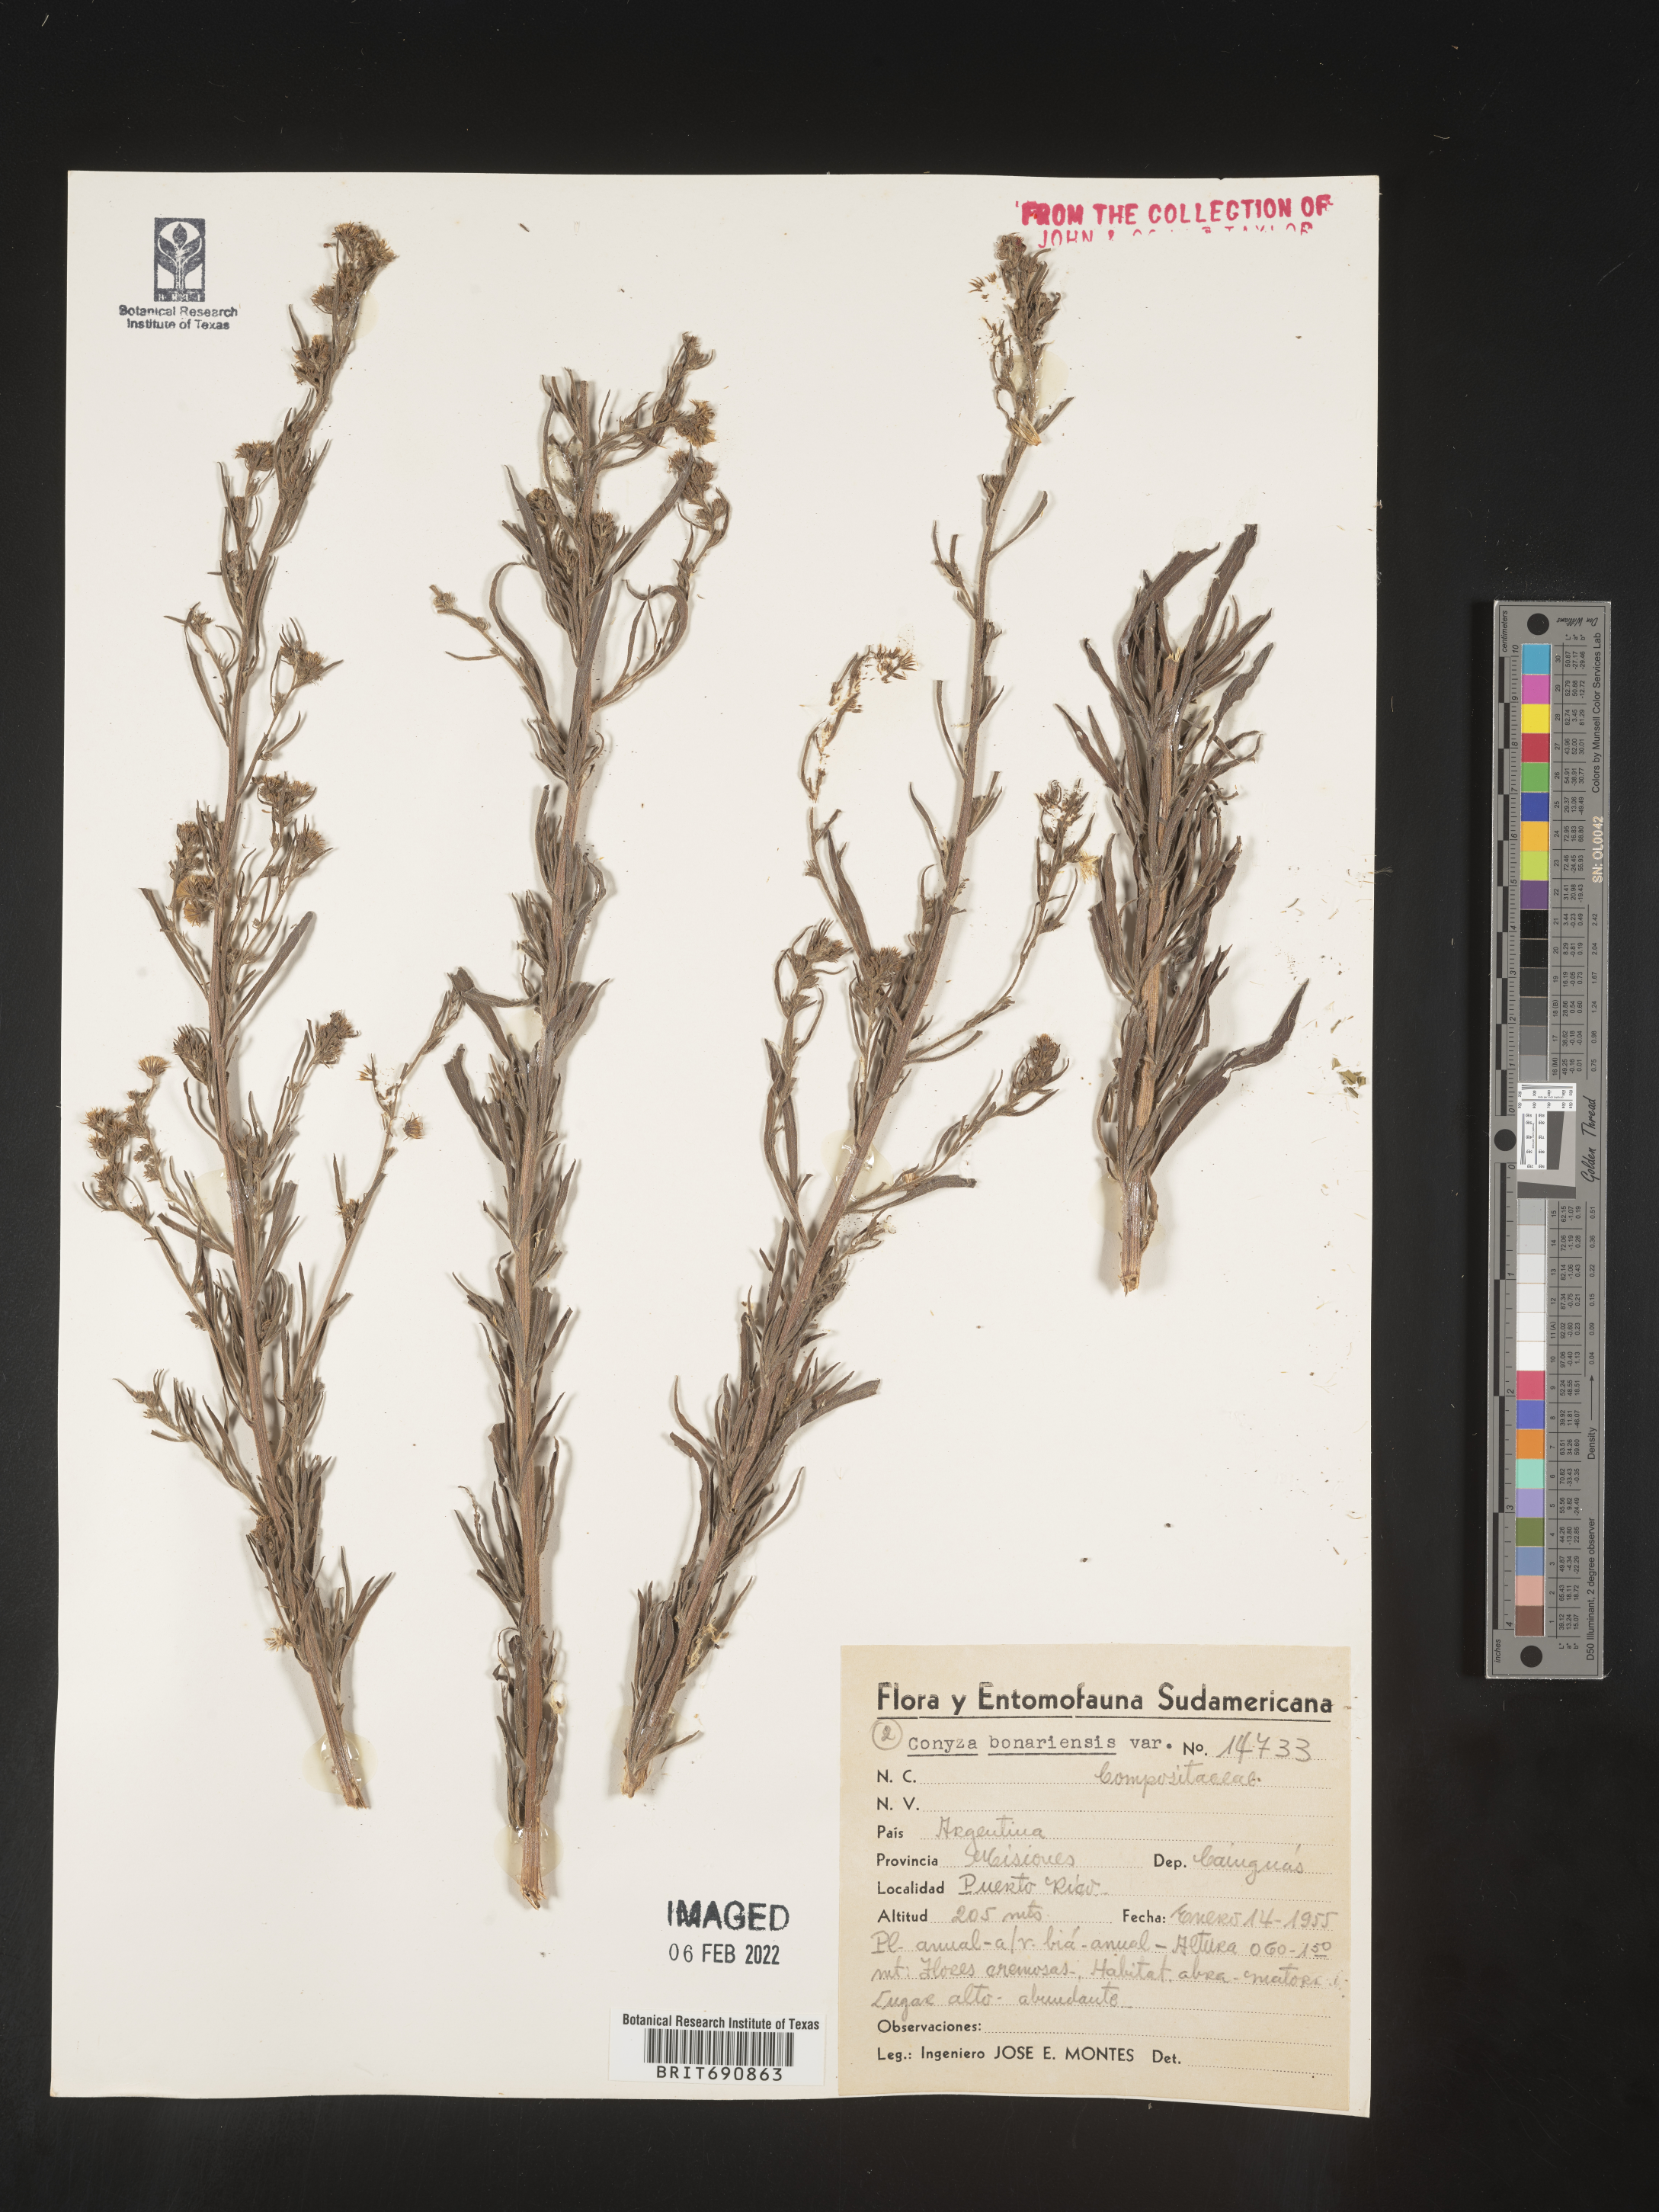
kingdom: Plantae
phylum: Tracheophyta
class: Magnoliopsida
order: Asterales
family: Asteraceae
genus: Conyza
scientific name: Conyza
